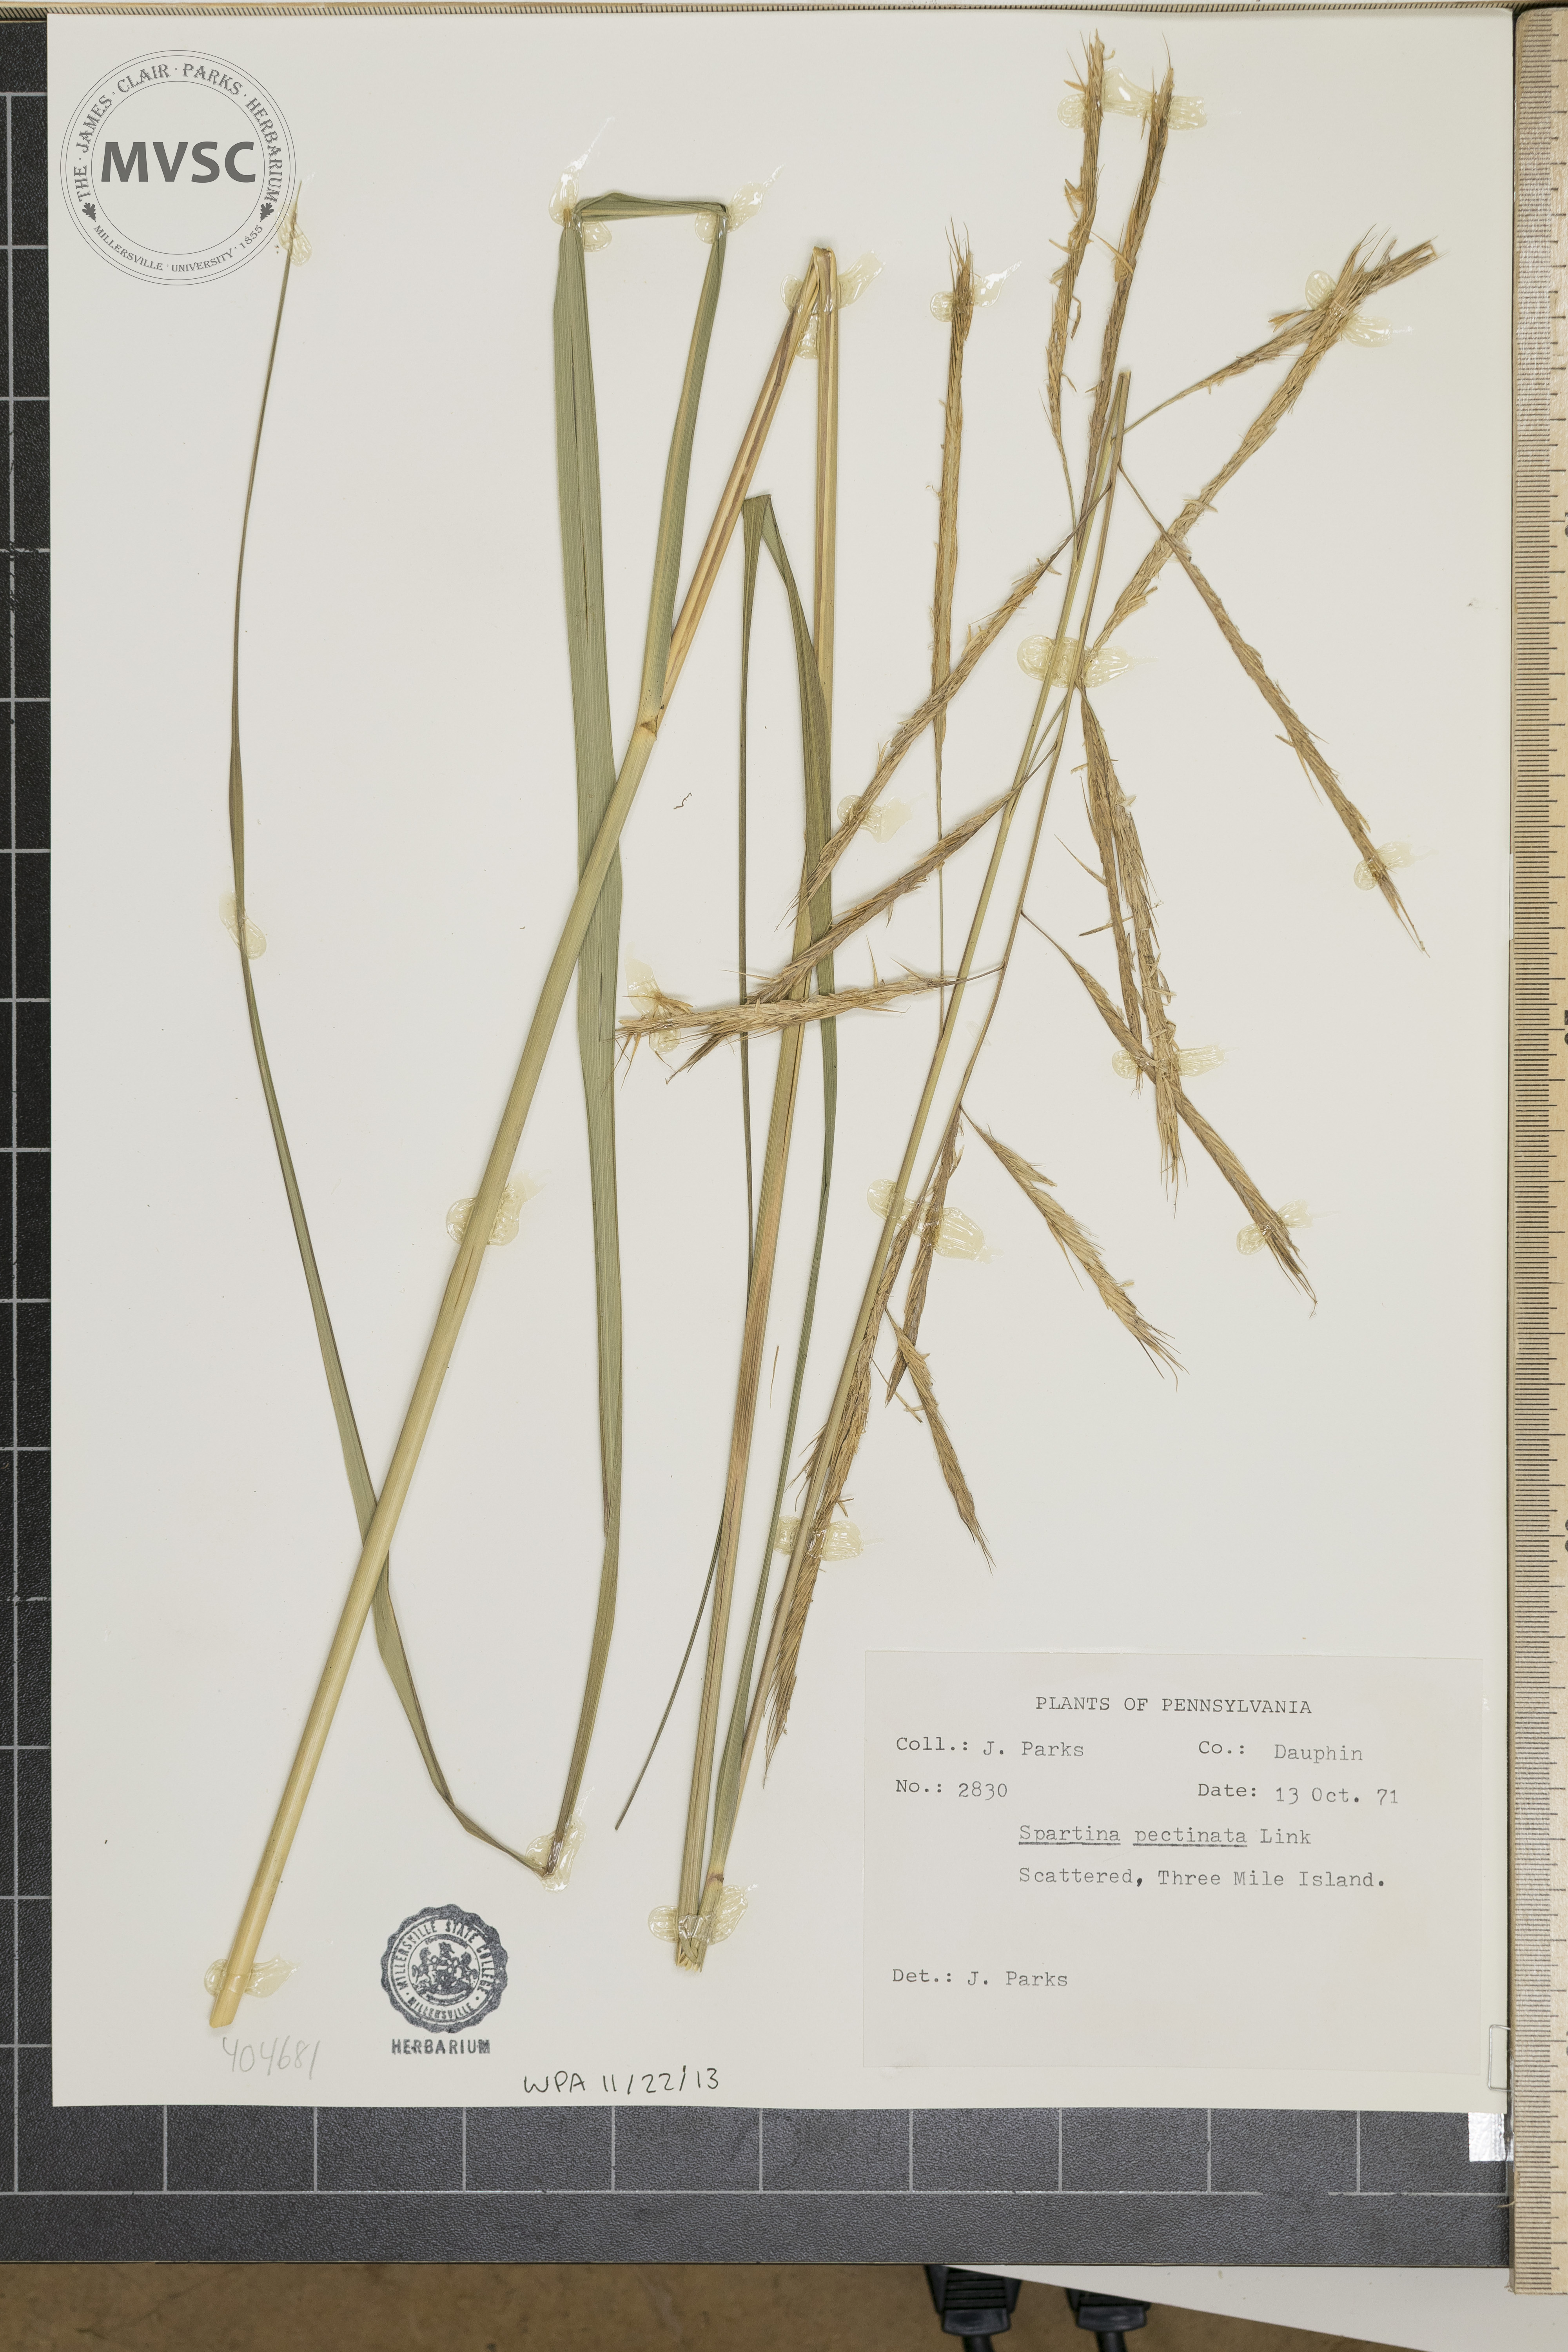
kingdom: Plantae
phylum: Tracheophyta
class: Liliopsida
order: Poales
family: Poaceae
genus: Sporobolus
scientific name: Sporobolus michauxianus
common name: Freshwater cordgrass
